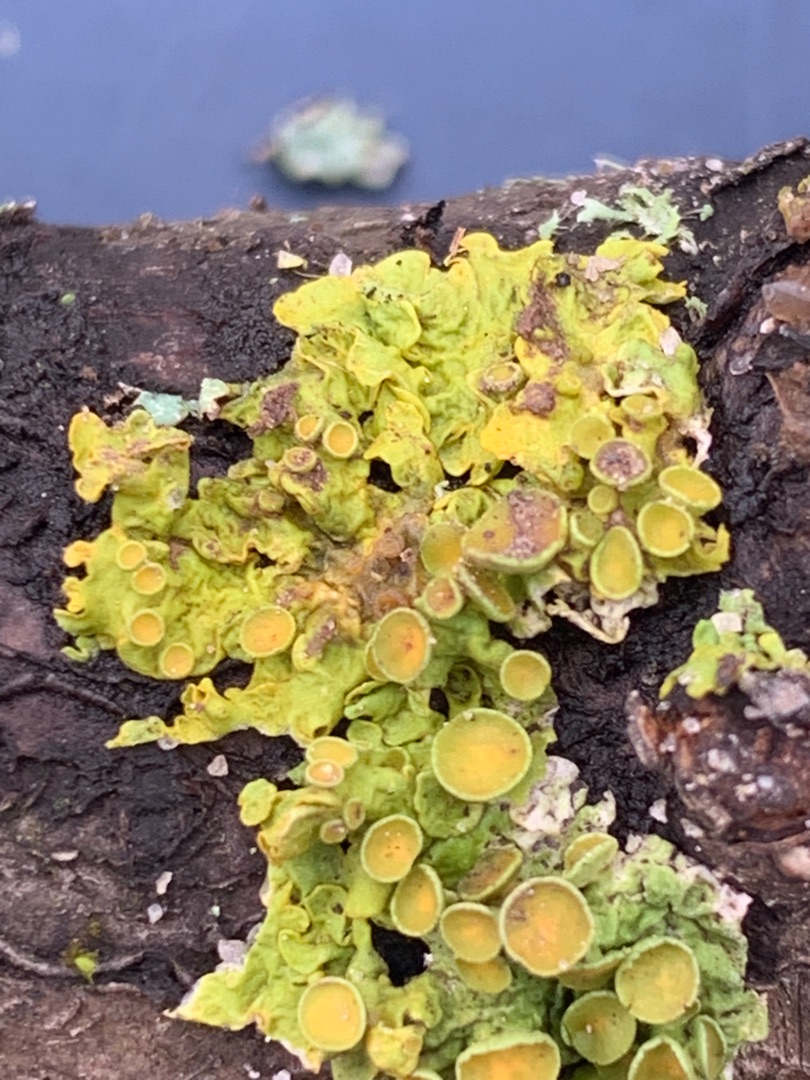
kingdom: Fungi
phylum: Ascomycota
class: Lecanoromycetes
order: Teloschistales
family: Teloschistaceae
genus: Xanthoria
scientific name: Xanthoria parietina
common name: Almindelig væggelav
